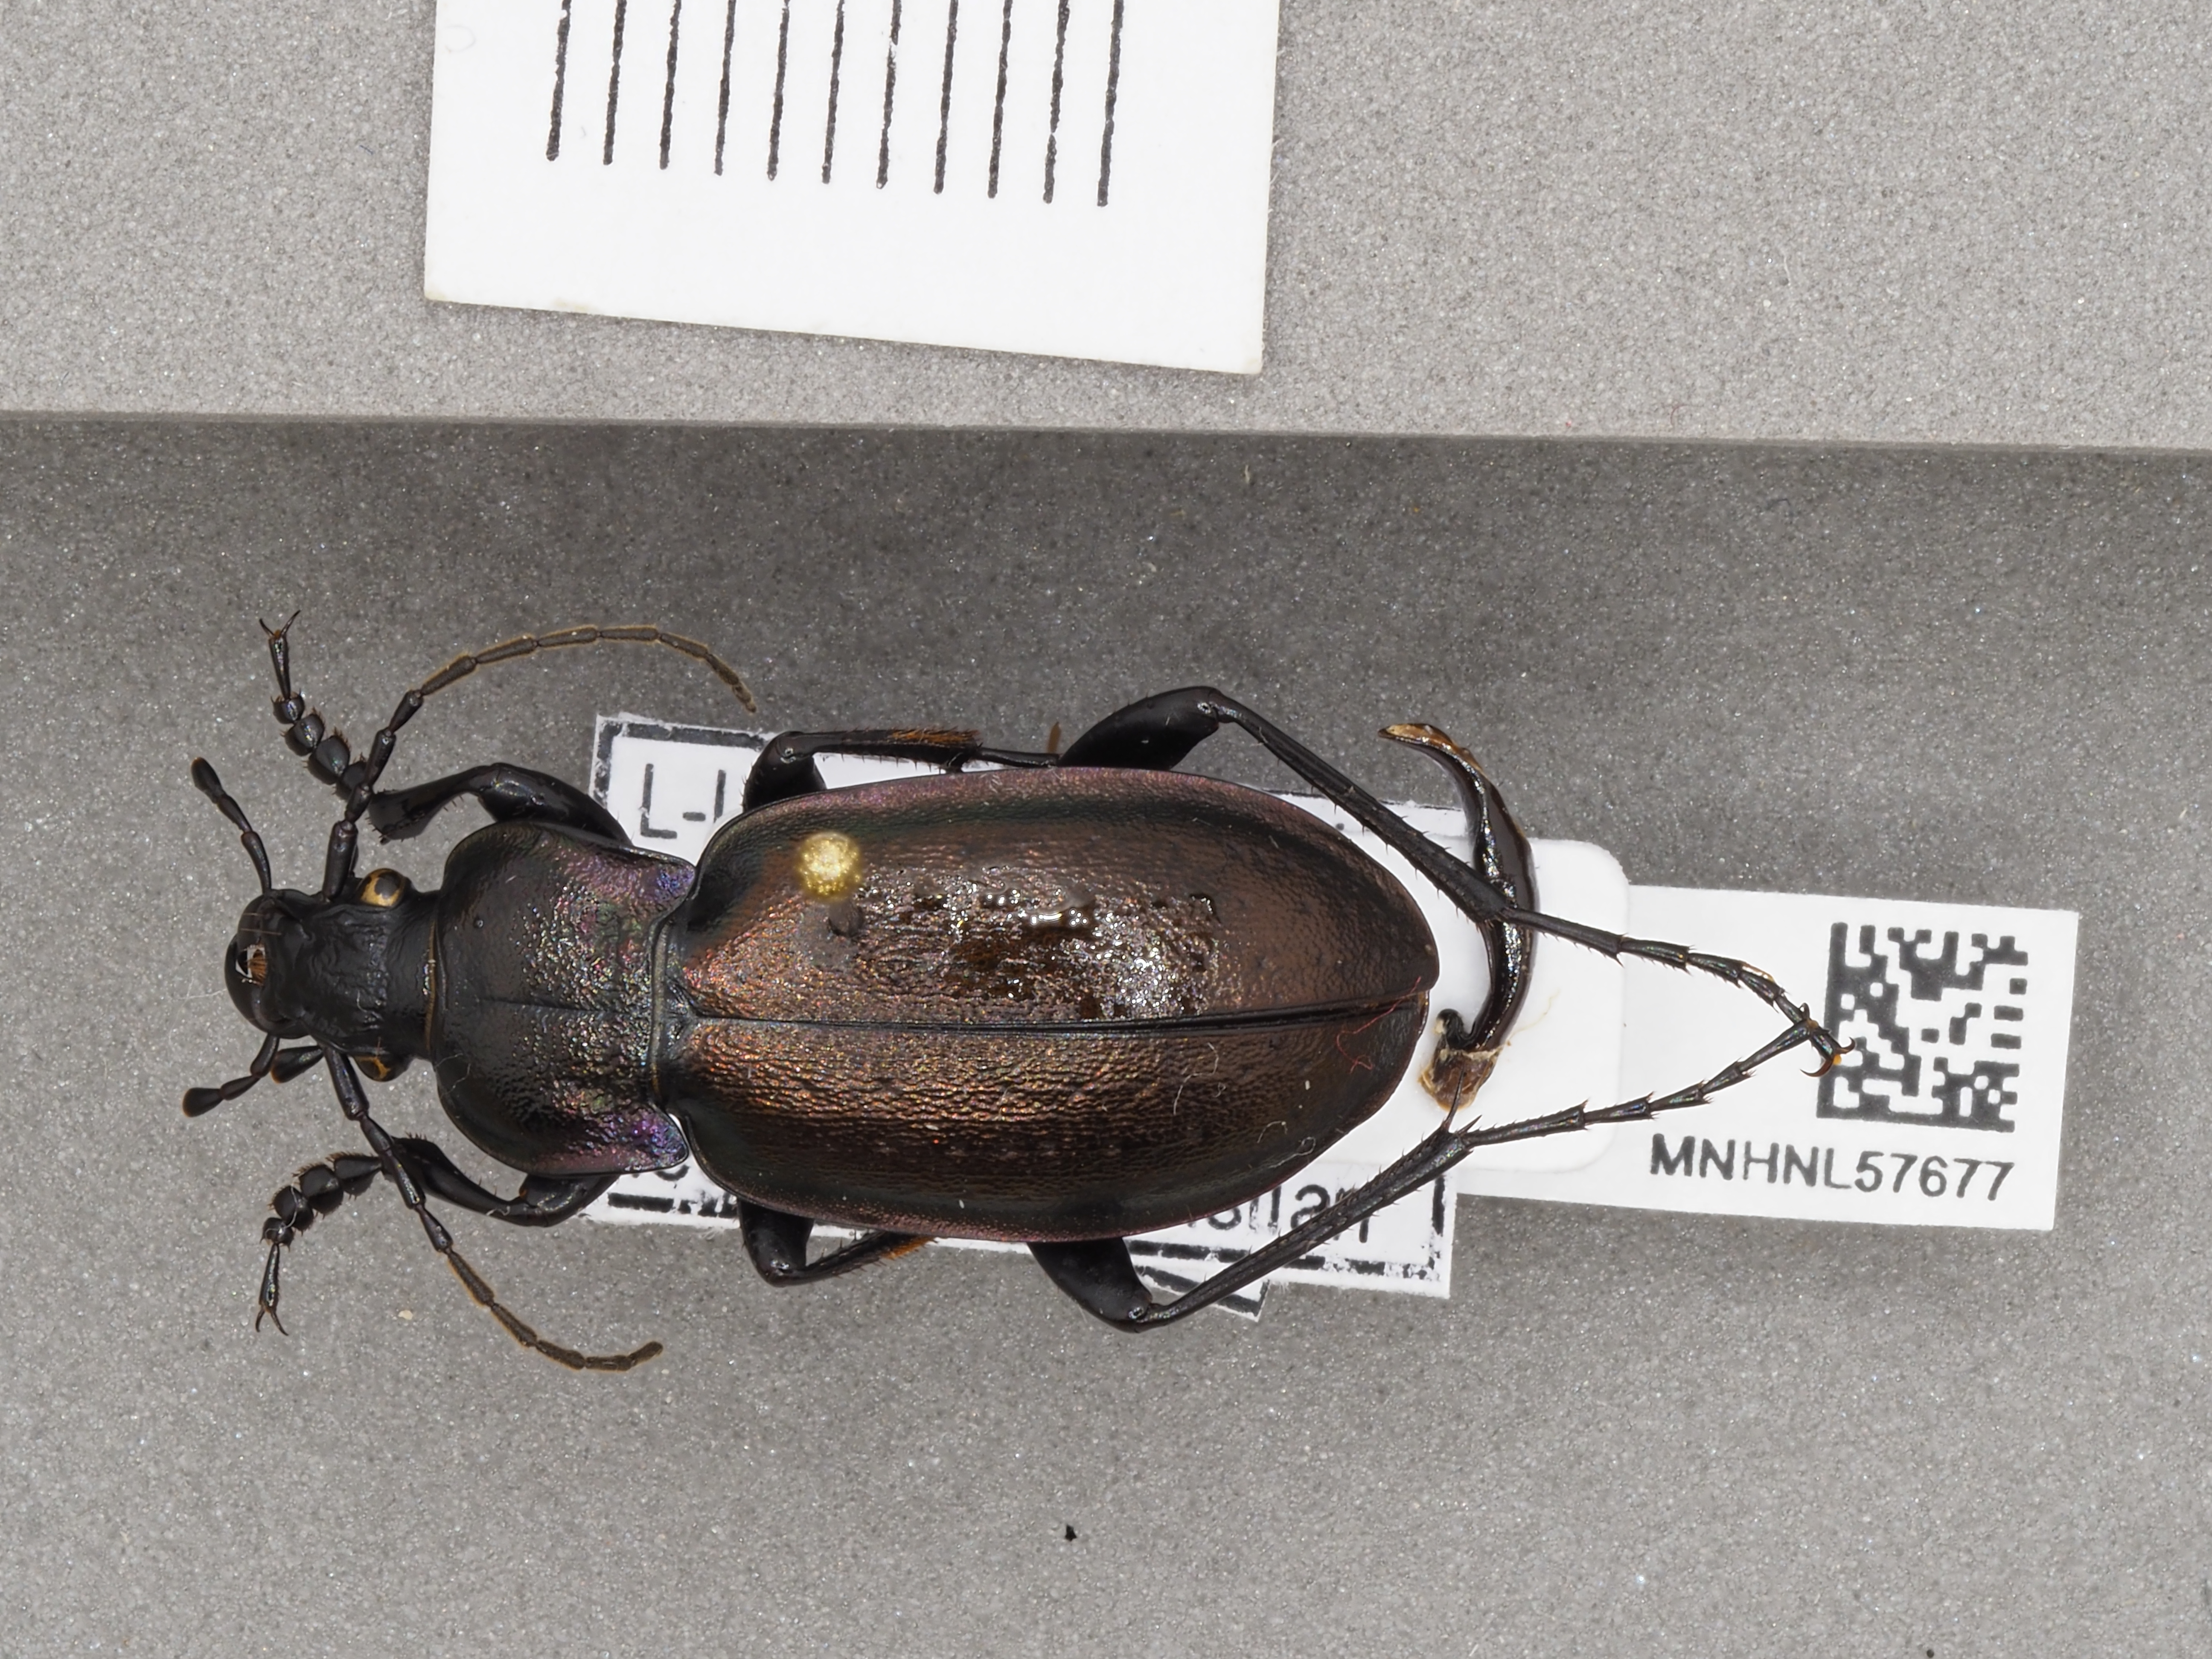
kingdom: Animalia
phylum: Arthropoda
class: Insecta
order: Coleoptera
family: Carabidae
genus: Carabus
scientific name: Carabus nemoralis
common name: European ground beetle
